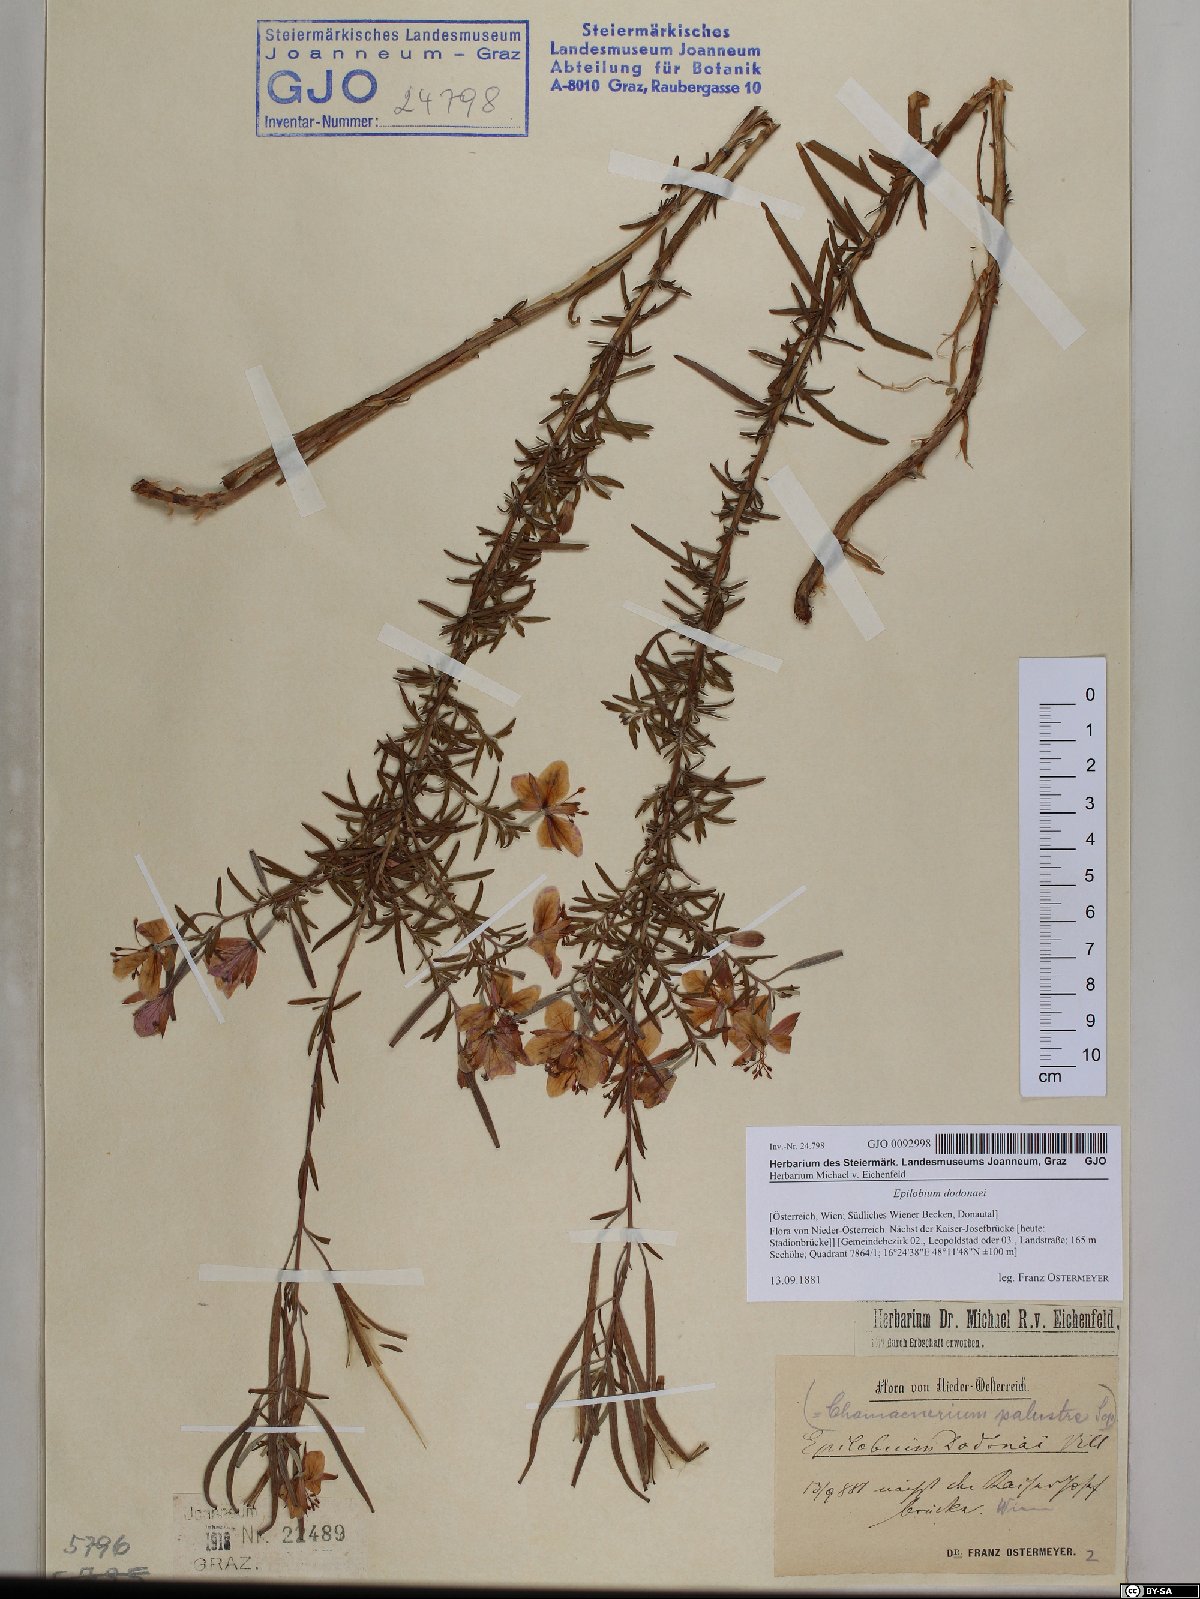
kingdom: Plantae
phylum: Tracheophyta
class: Magnoliopsida
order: Myrtales
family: Onagraceae
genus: Chamaenerion
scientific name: Chamaenerion dodonaei
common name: Rosemary-leaved willowherb
